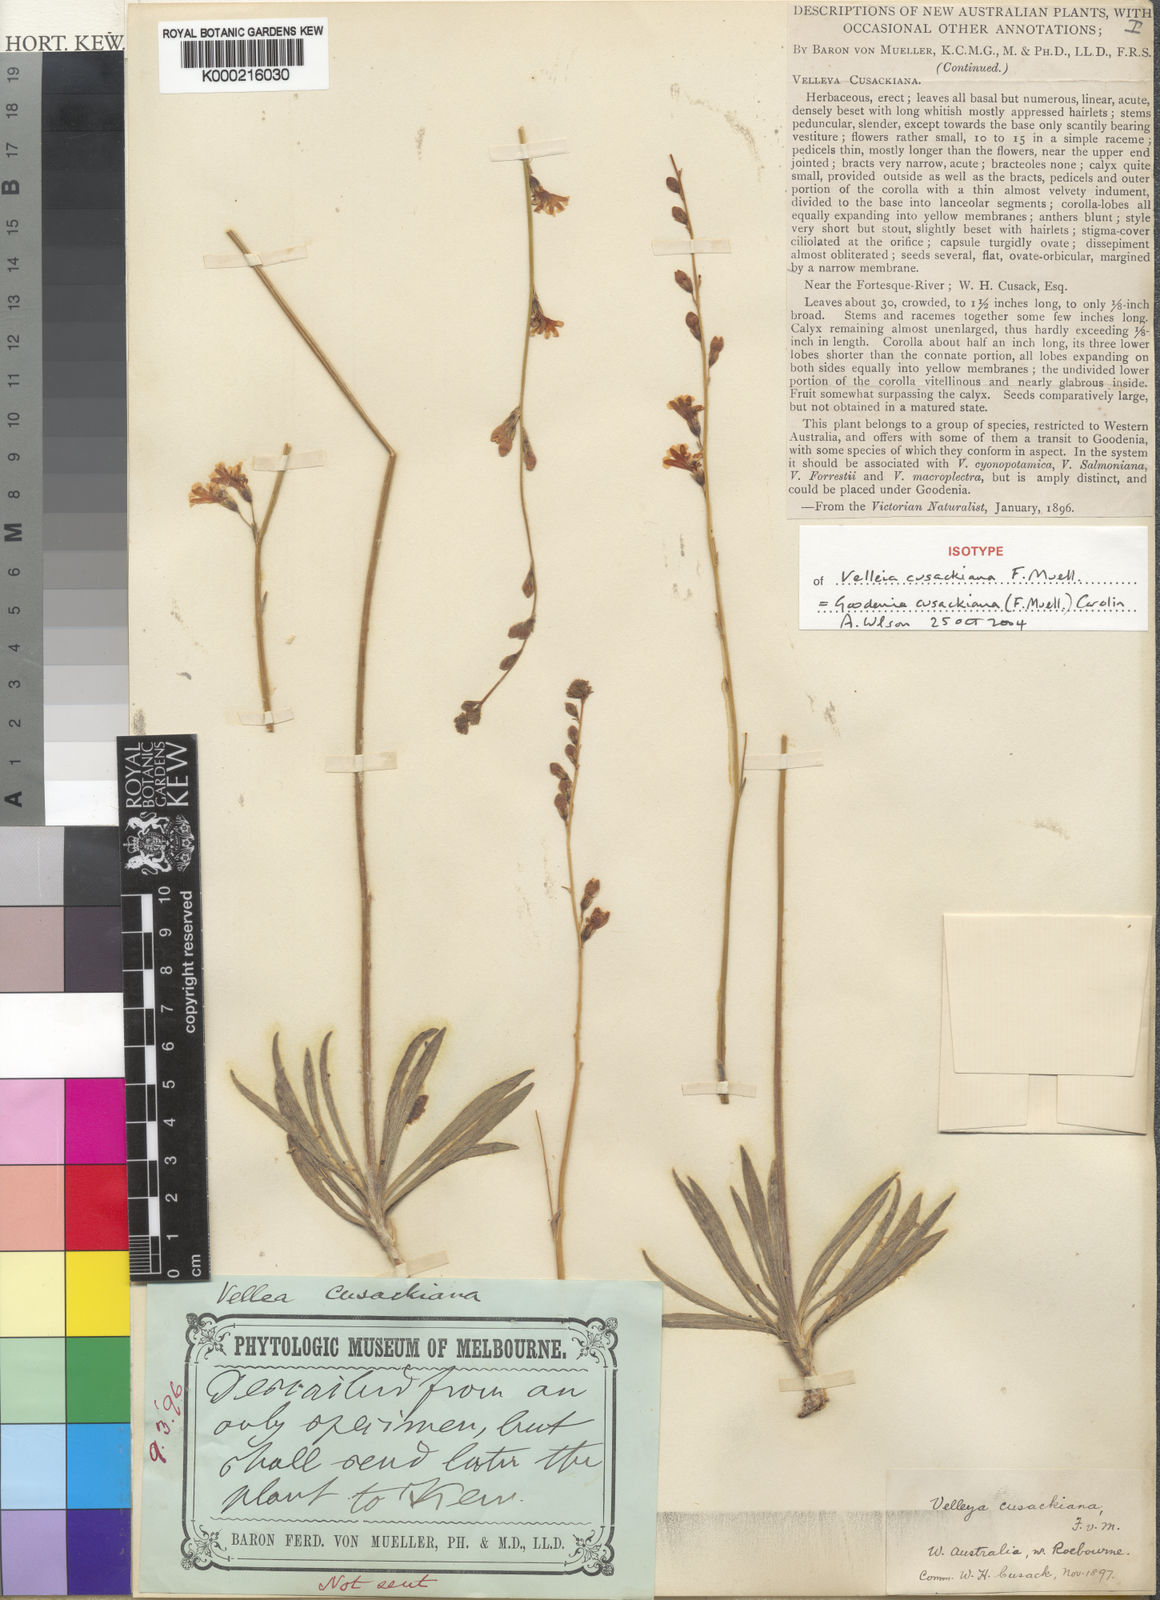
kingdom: Plantae
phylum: Tracheophyta
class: Magnoliopsida
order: Asterales
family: Goodeniaceae
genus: Goodenia
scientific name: Goodenia cusackiana
